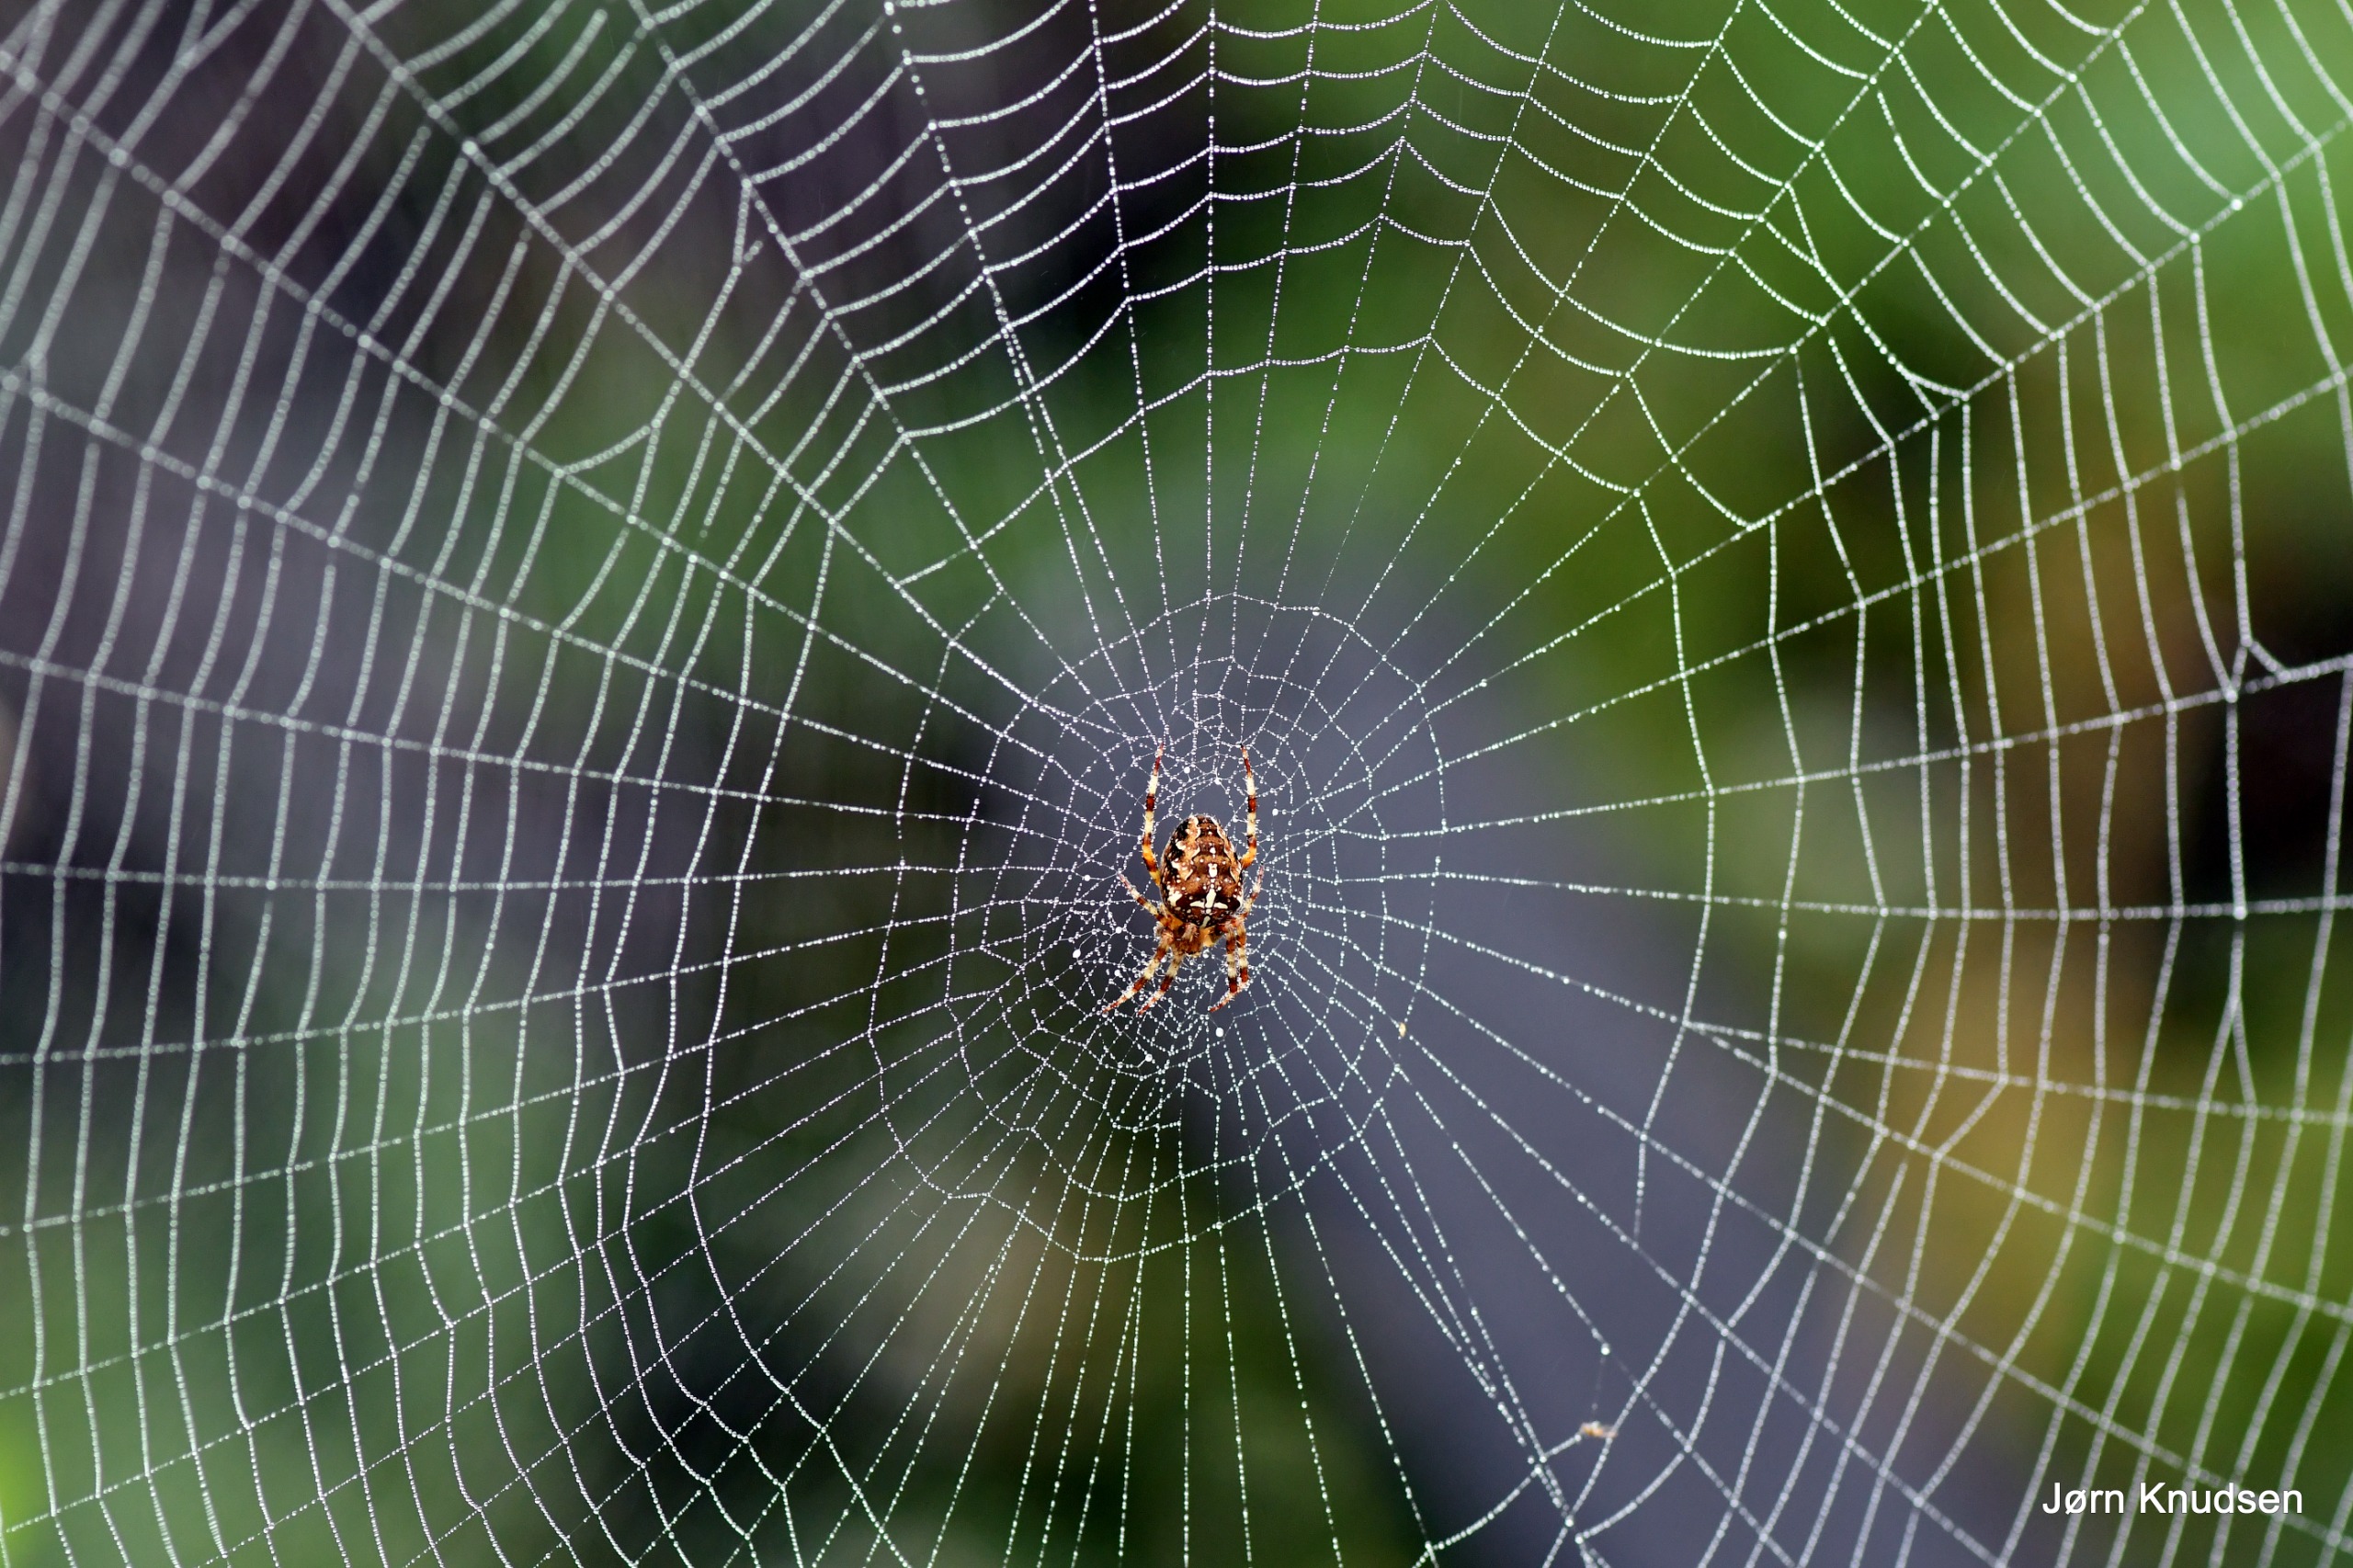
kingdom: Animalia
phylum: Arthropoda
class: Arachnida
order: Araneae
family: Araneidae
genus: Araneus
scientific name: Araneus diadematus
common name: Korsedderkop
